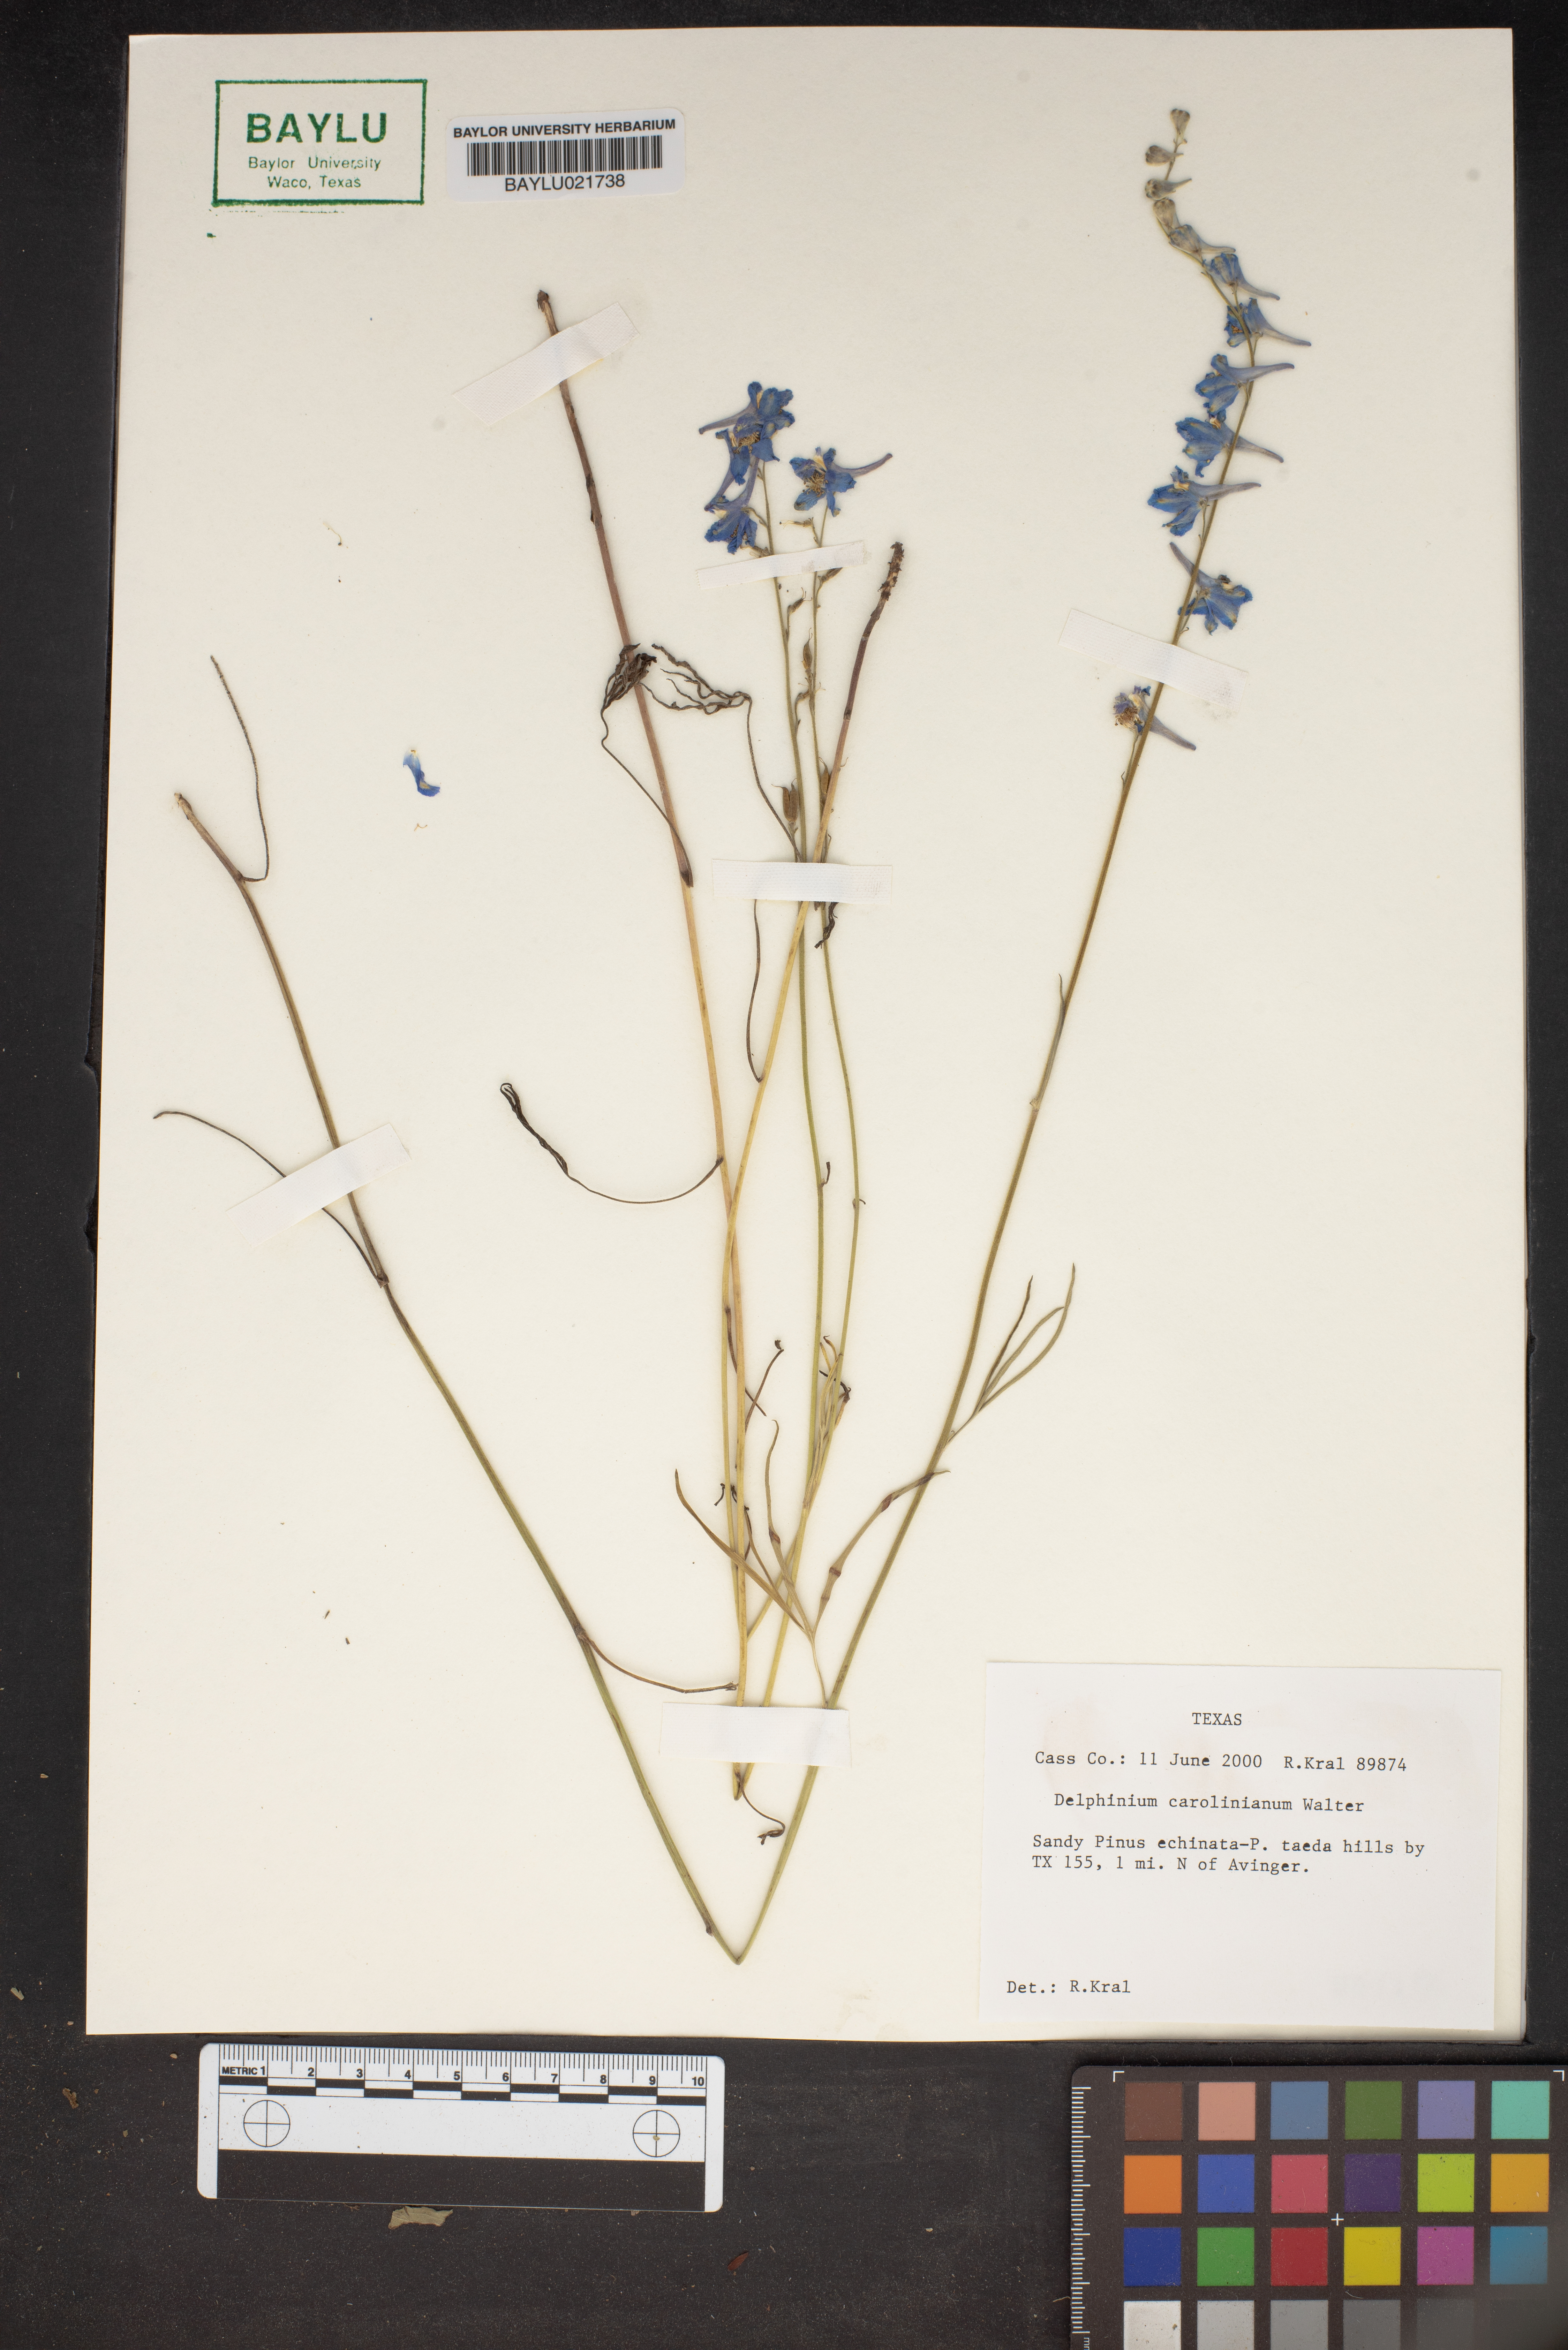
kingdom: Plantae
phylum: Tracheophyta
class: Magnoliopsida
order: Ranunculales
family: Ranunculaceae
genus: Delphinium
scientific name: Delphinium carolinianum
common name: Carolina larkspur
